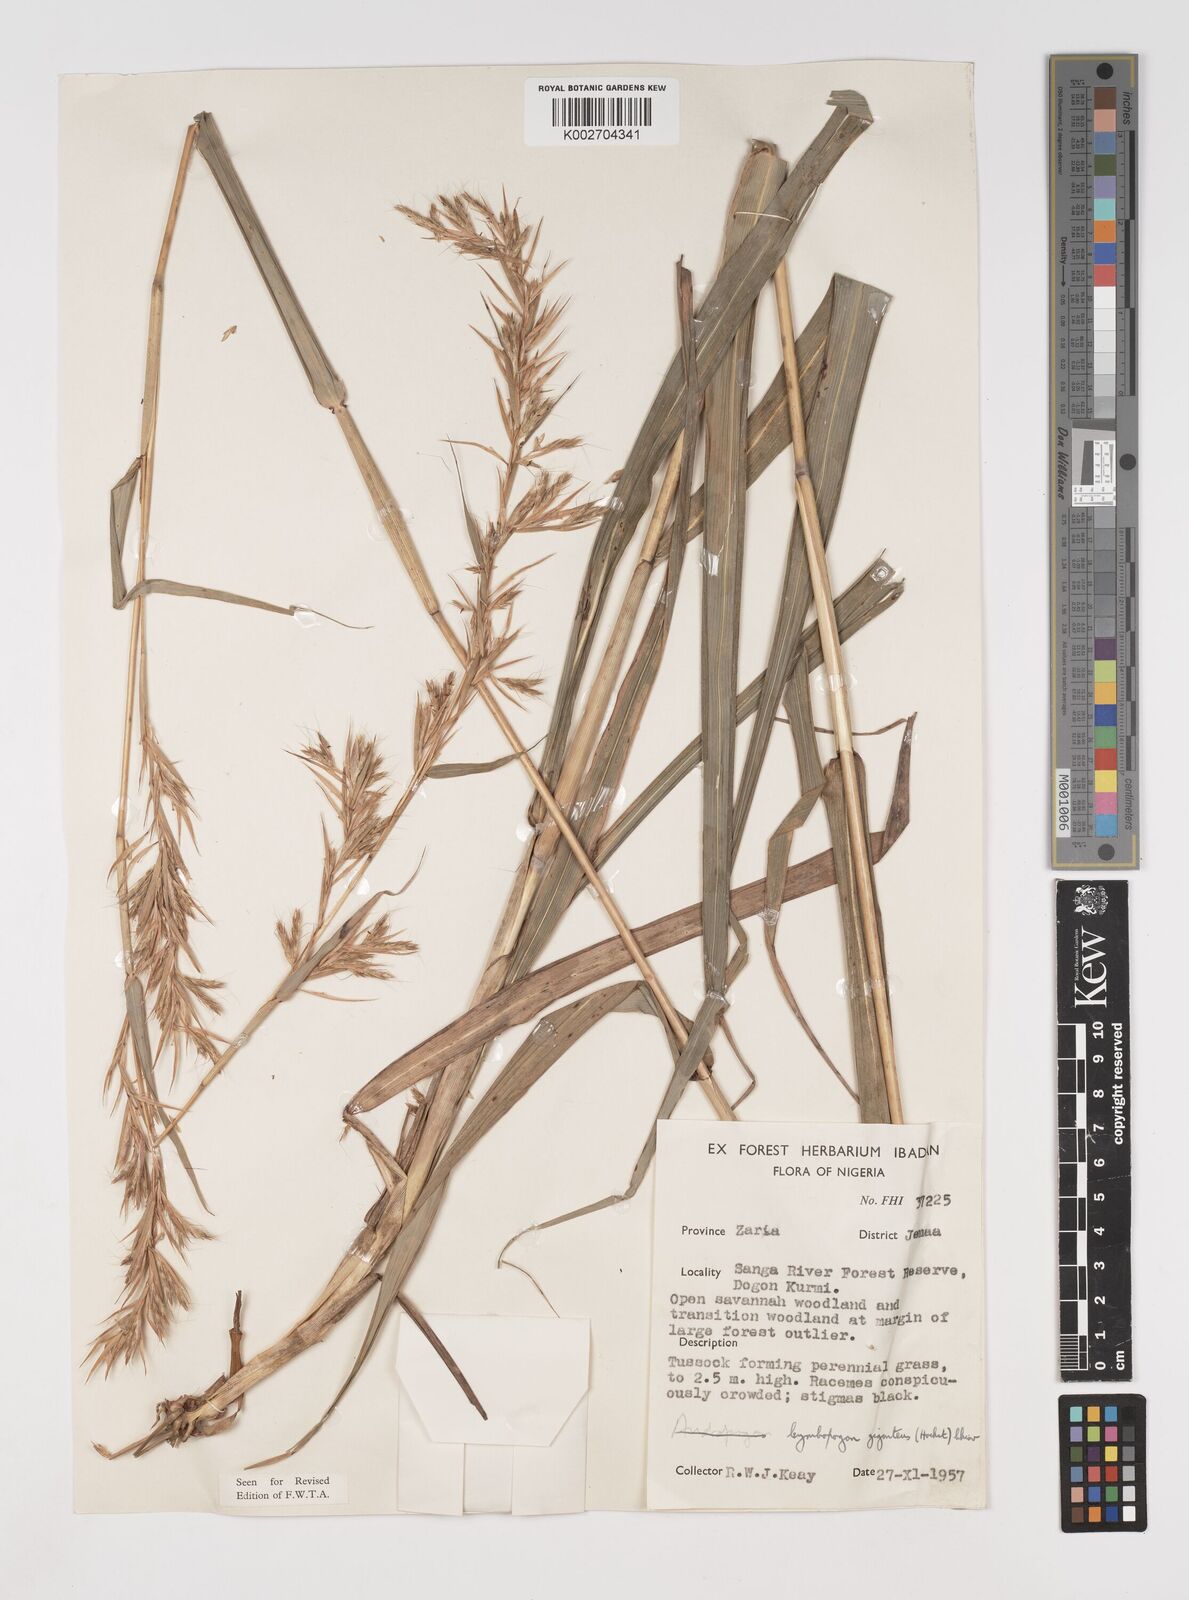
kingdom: Plantae
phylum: Tracheophyta
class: Liliopsida
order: Poales
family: Poaceae
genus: Cymbopogon
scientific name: Cymbopogon giganteus
